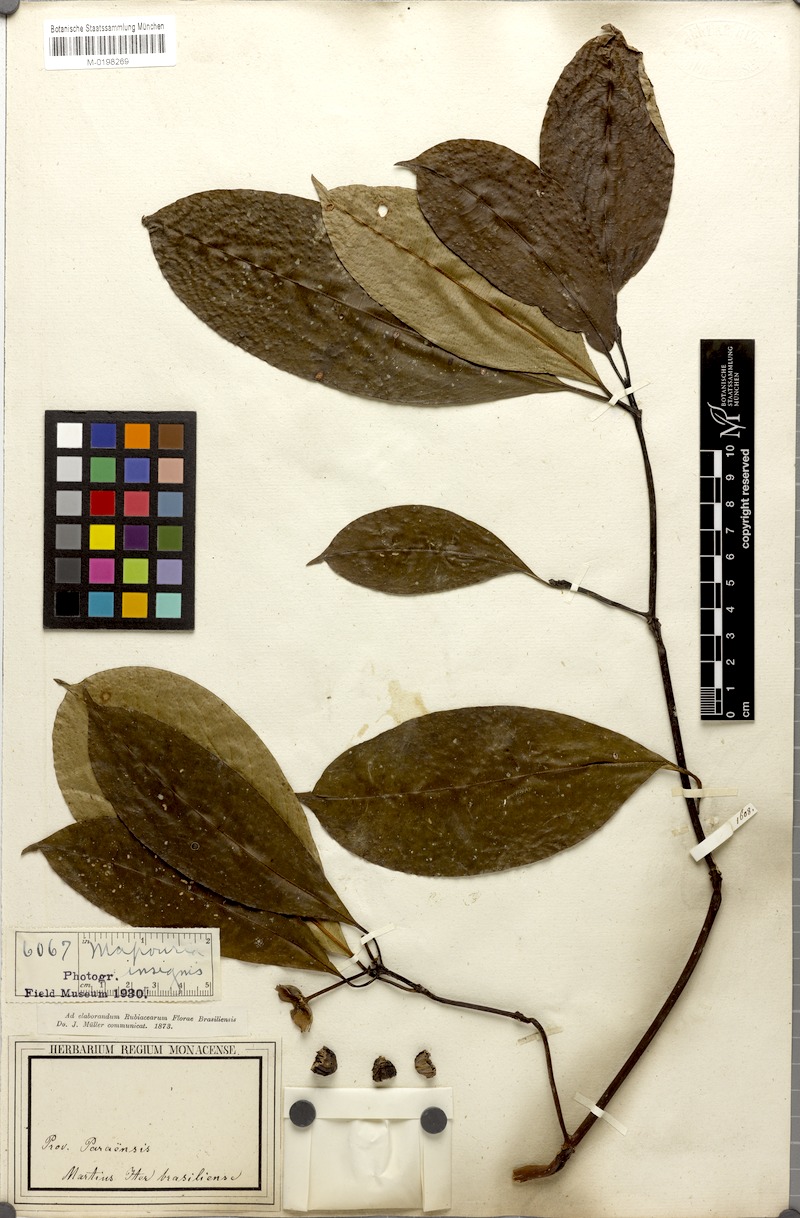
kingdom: Plantae
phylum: Tracheophyta
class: Magnoliopsida
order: Gentianales
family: Rubiaceae
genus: Palicourea
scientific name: Palicourea perinsignis
